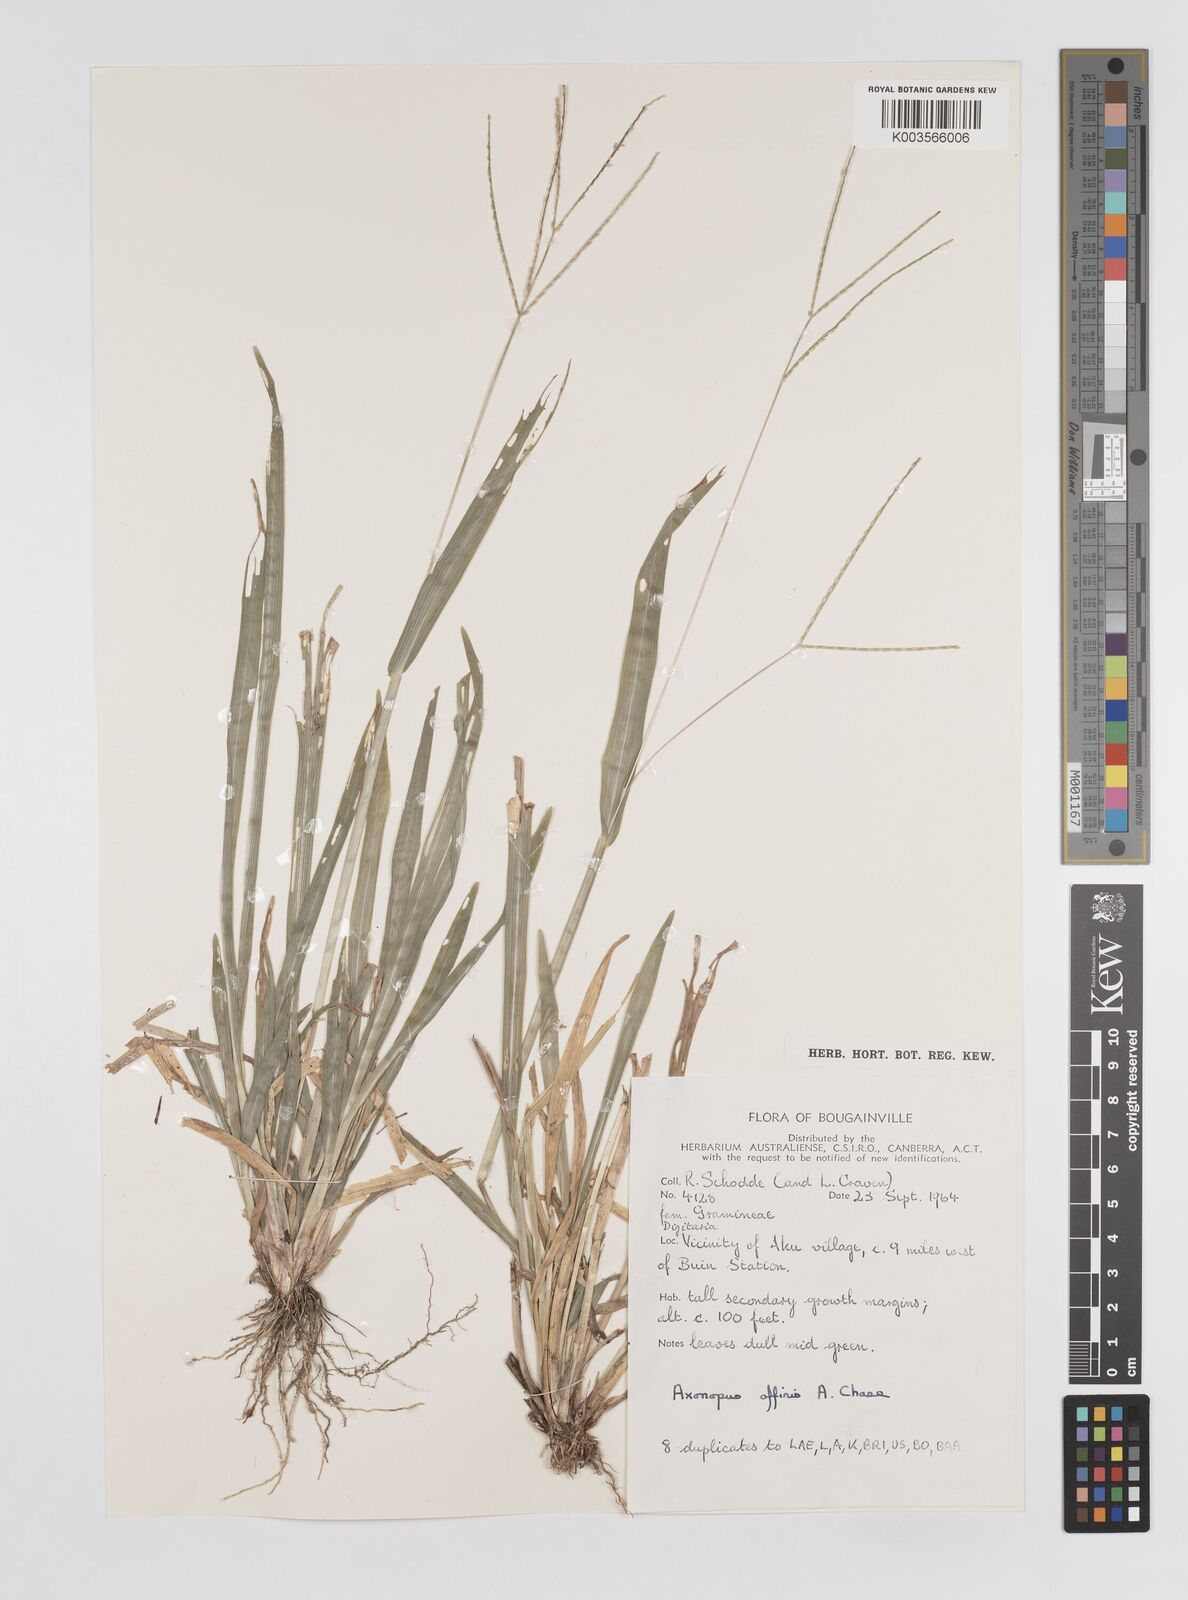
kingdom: Plantae
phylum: Tracheophyta
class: Liliopsida
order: Poales
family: Poaceae
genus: Axonopus
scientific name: Axonopus compressus
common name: American carpet grass
